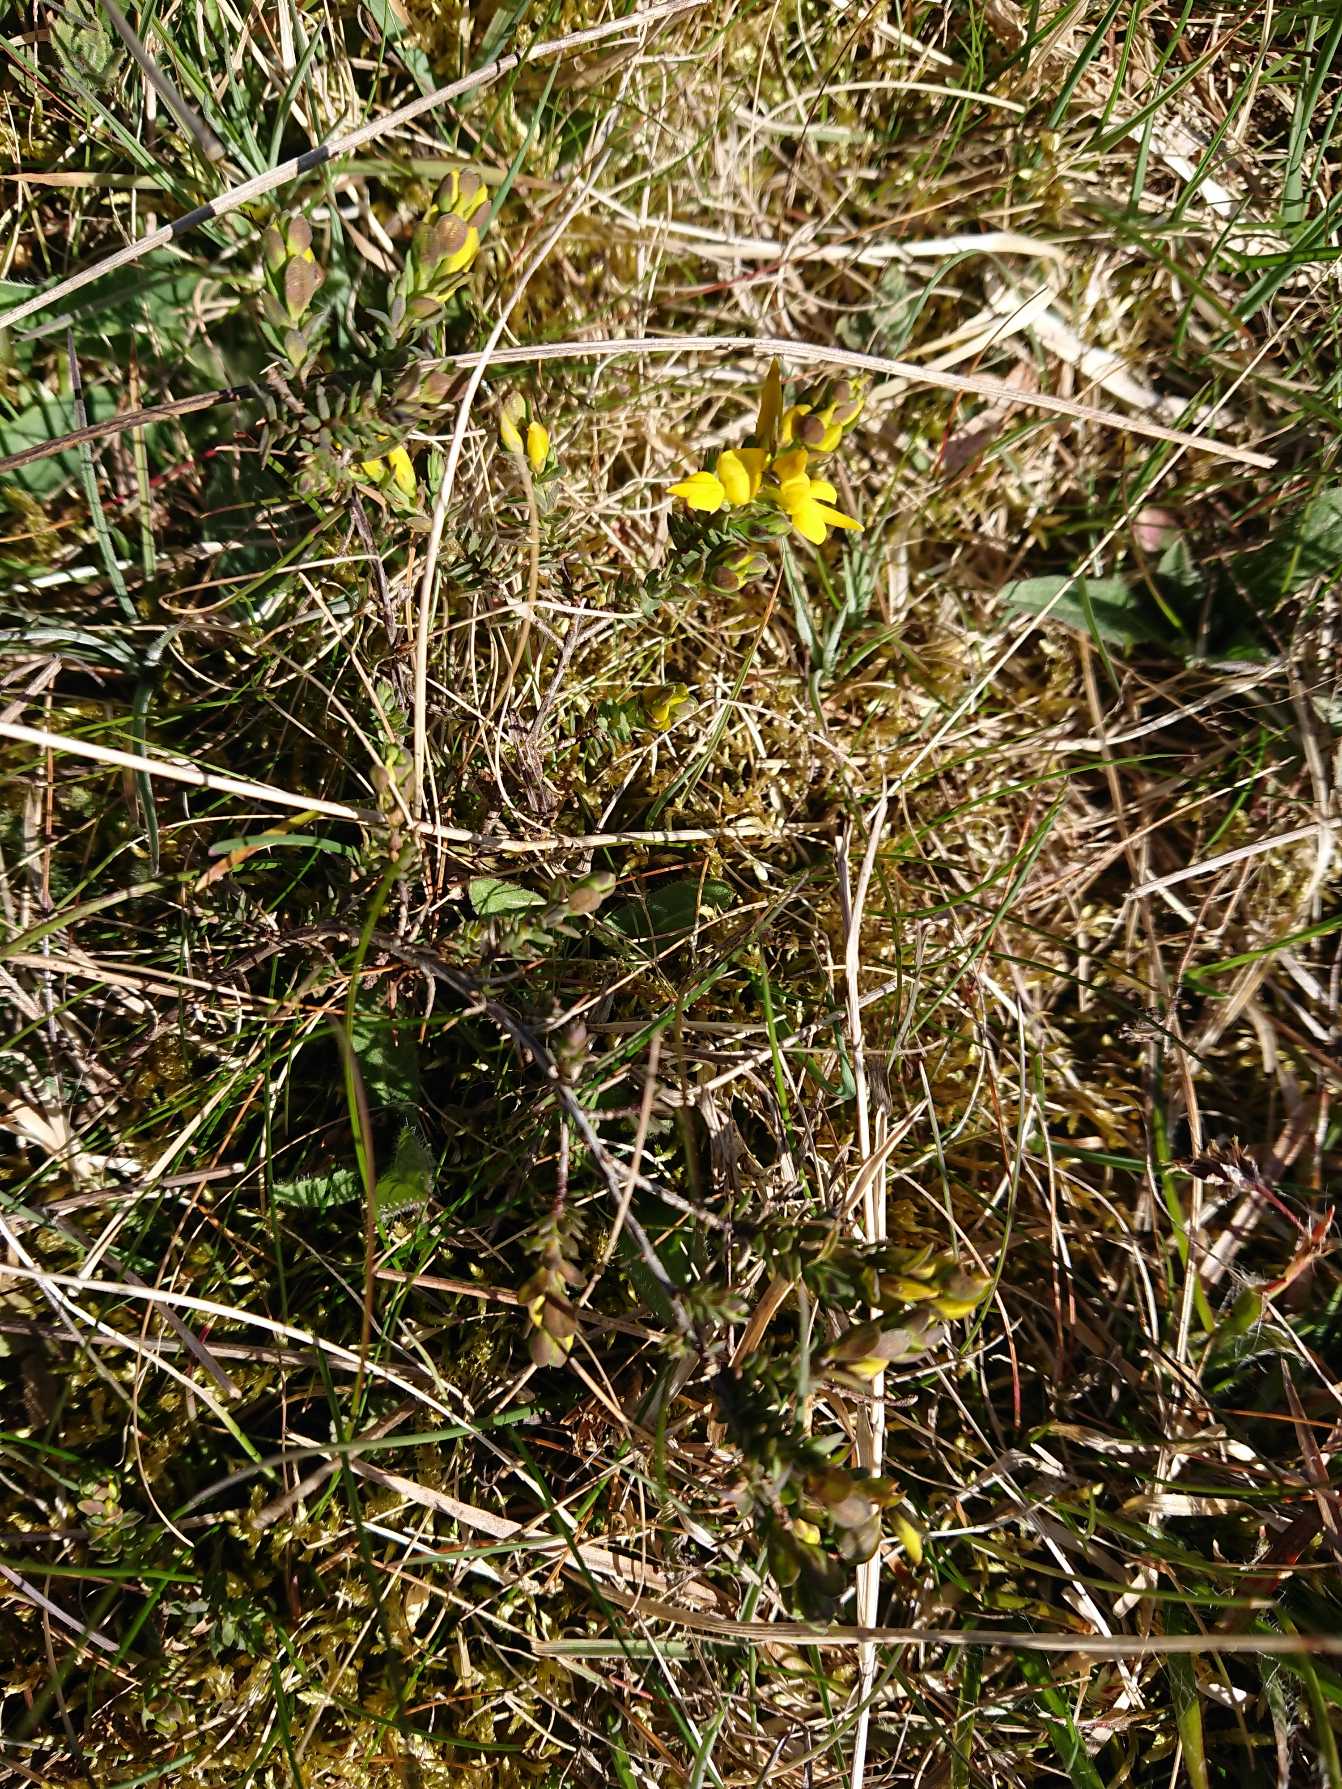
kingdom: Plantae
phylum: Tracheophyta
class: Magnoliopsida
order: Fabales
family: Fabaceae
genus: Genista
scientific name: Genista anglica
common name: Engelsk visse
